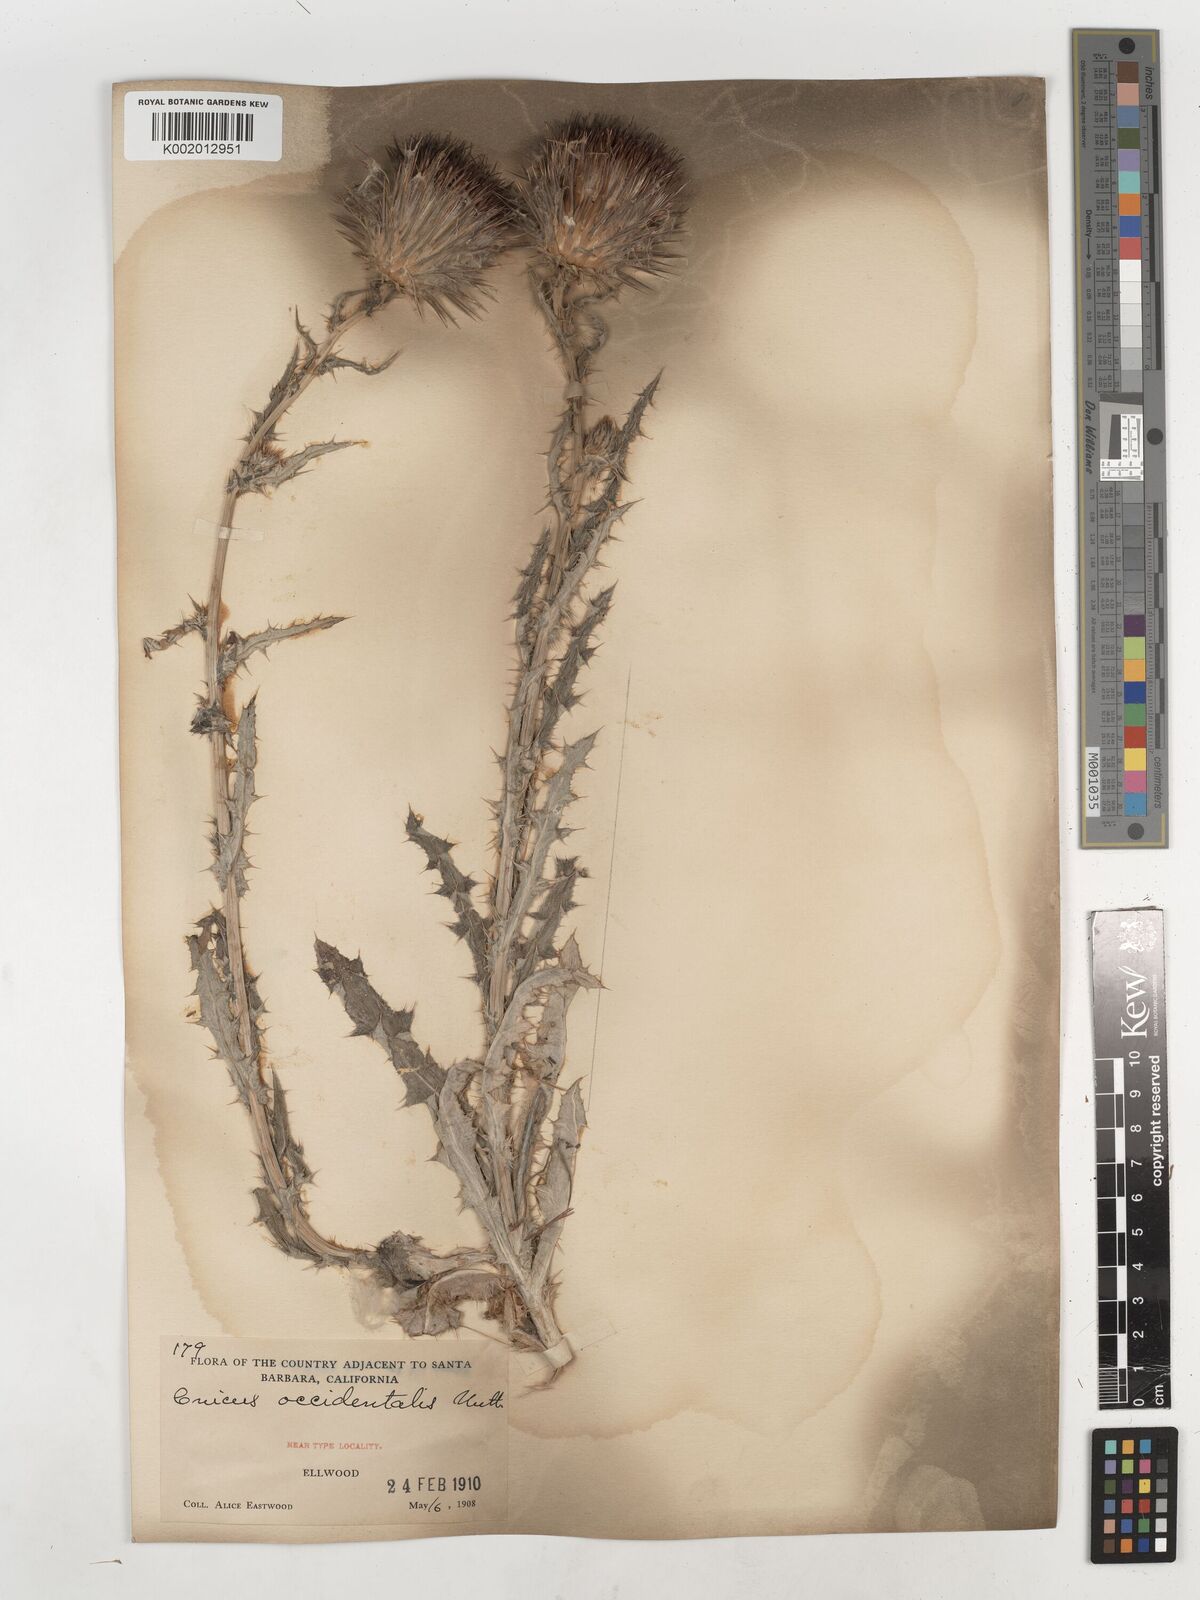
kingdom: Plantae
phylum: Tracheophyta
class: Magnoliopsida
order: Asterales
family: Asteraceae
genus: Cirsium
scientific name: Cirsium occidentale
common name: Western thistle
